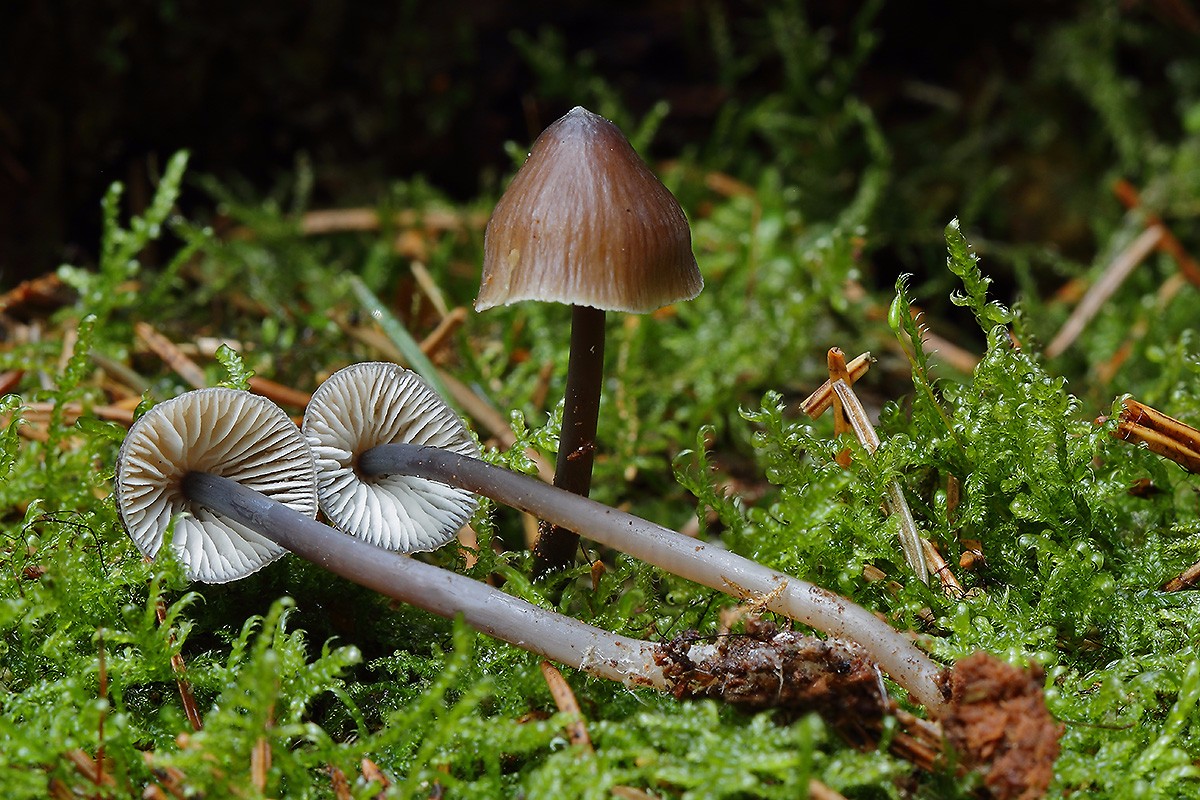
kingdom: Fungi
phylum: Basidiomycota
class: Agaricomycetes
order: Agaricales
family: Mycenaceae
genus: Mycena
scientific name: Mycena silvae-nigrae
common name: tidlig huesvamp
